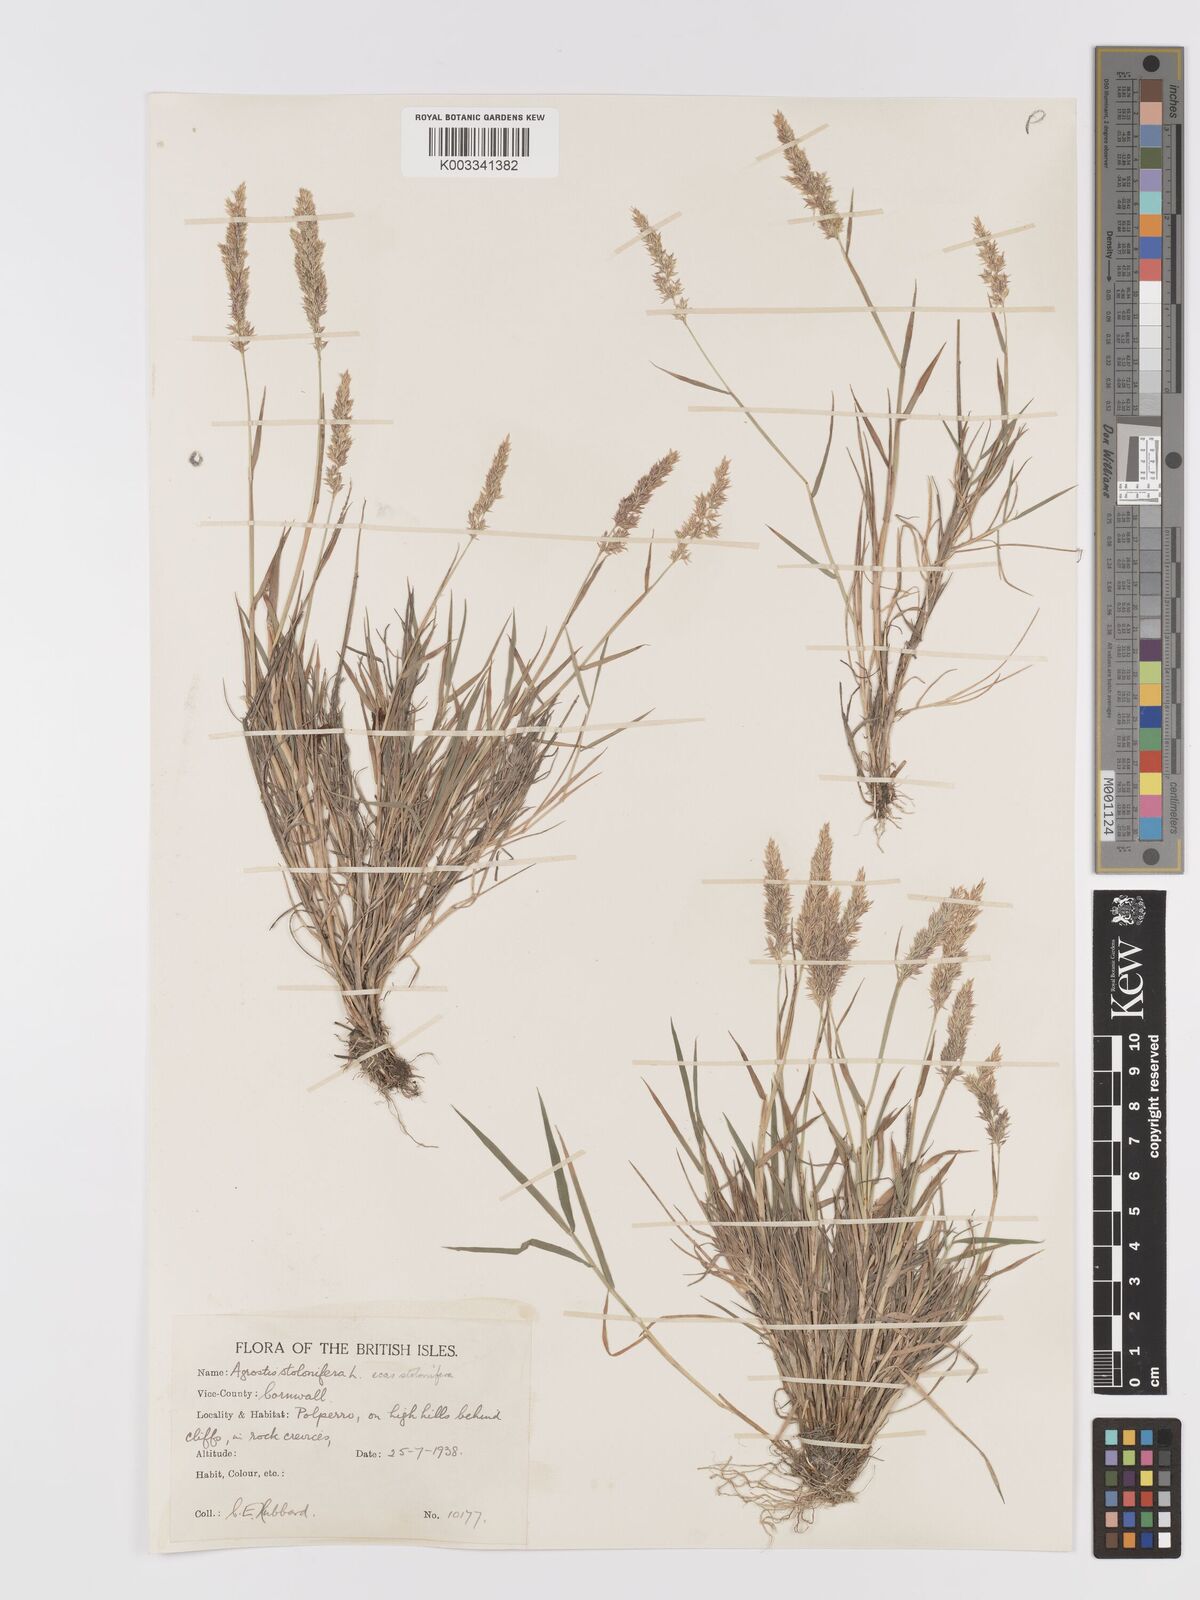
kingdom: Plantae
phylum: Tracheophyta
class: Liliopsida
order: Poales
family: Poaceae
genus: Agrostis
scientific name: Agrostis stolonifera
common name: Creeping bentgrass
